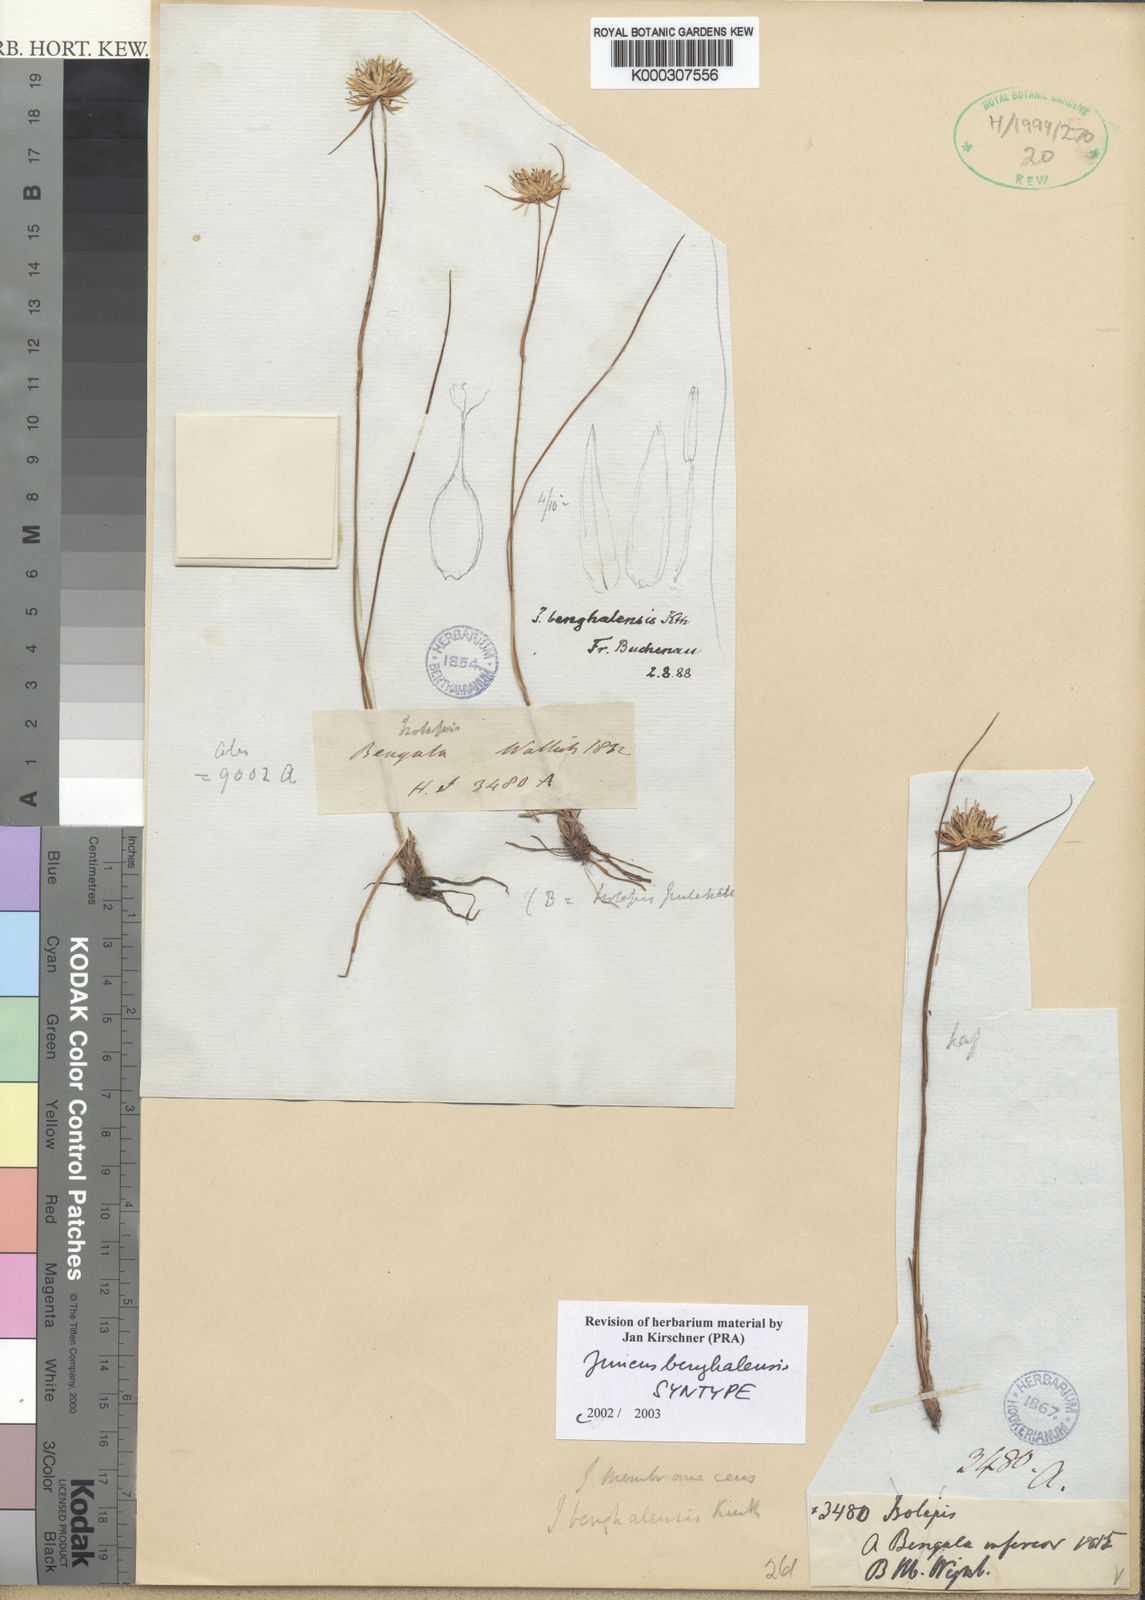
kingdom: Plantae
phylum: Tracheophyta
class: Liliopsida
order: Poales
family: Juncaceae
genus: Juncus
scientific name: Juncus
